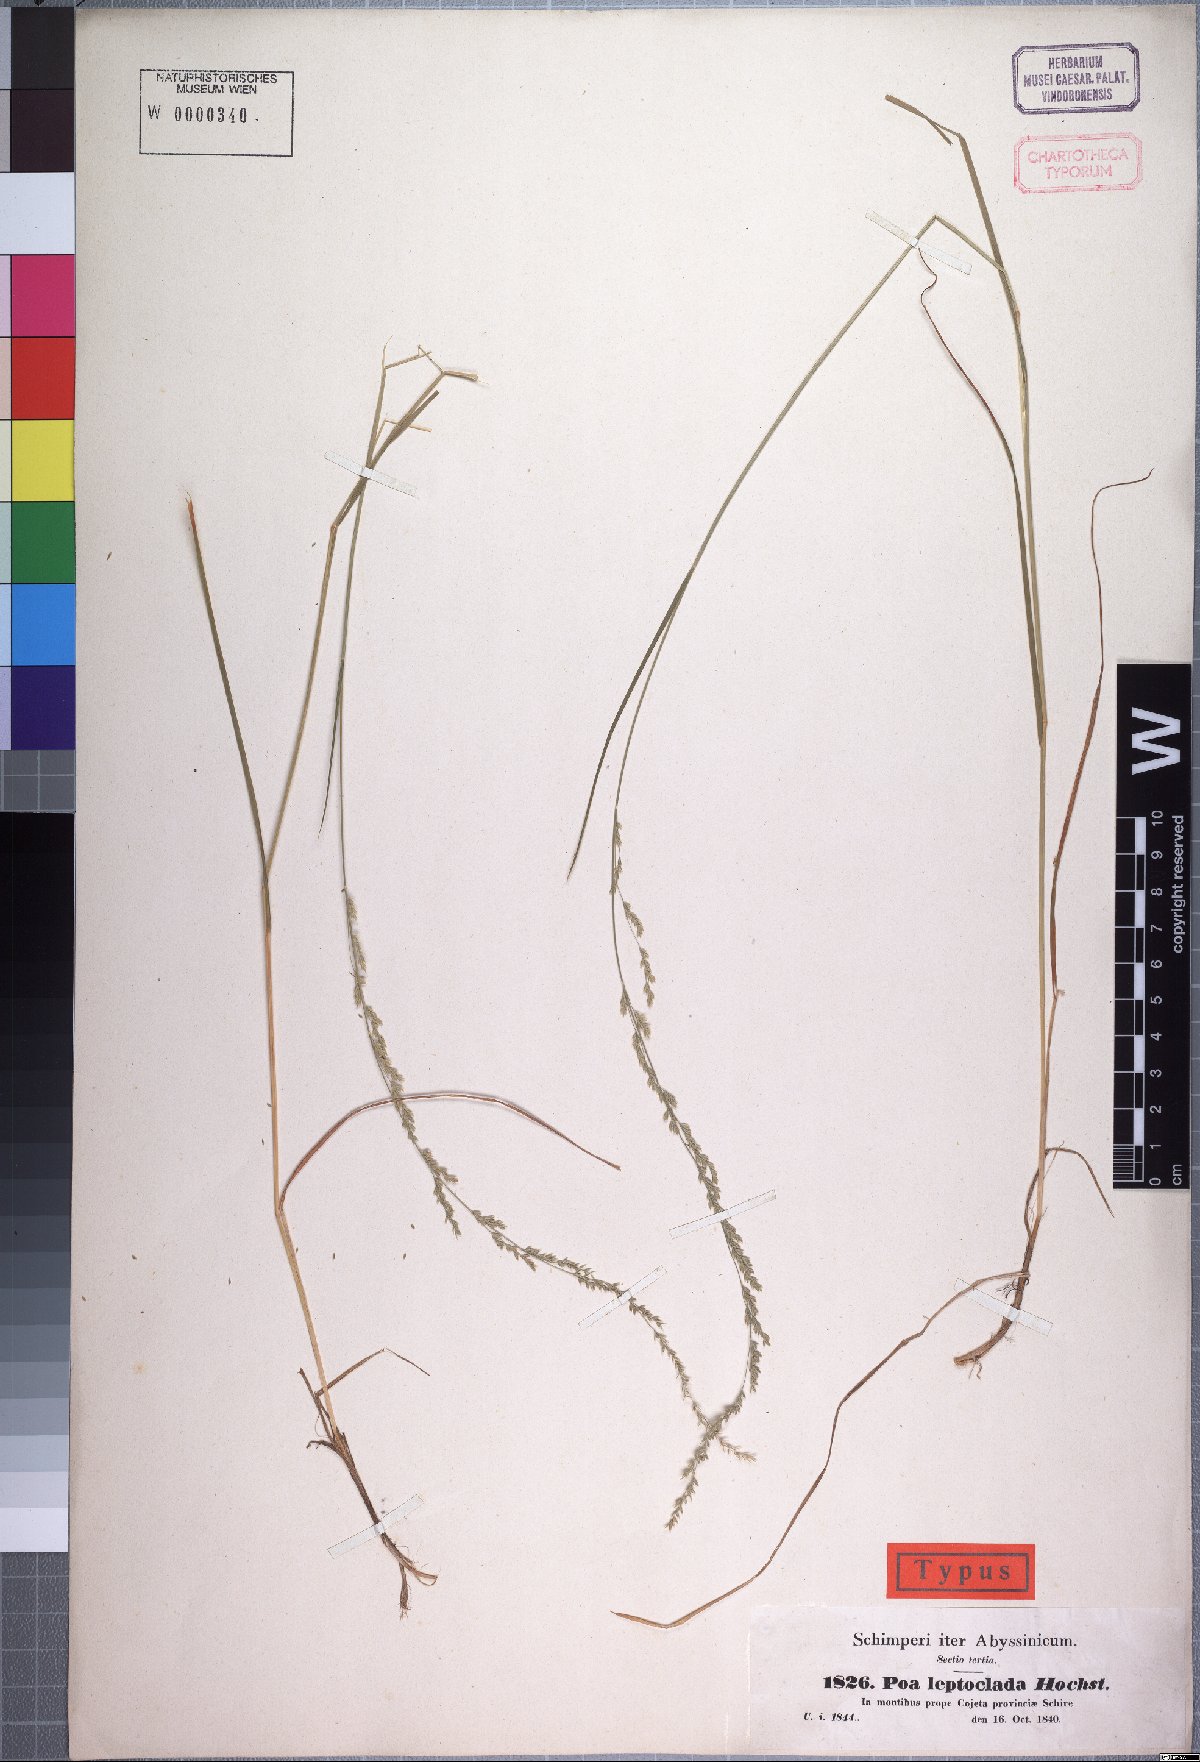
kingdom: Plantae
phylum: Tracheophyta
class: Liliopsida
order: Poales
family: Poaceae
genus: Poa
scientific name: Poa leptoclada
